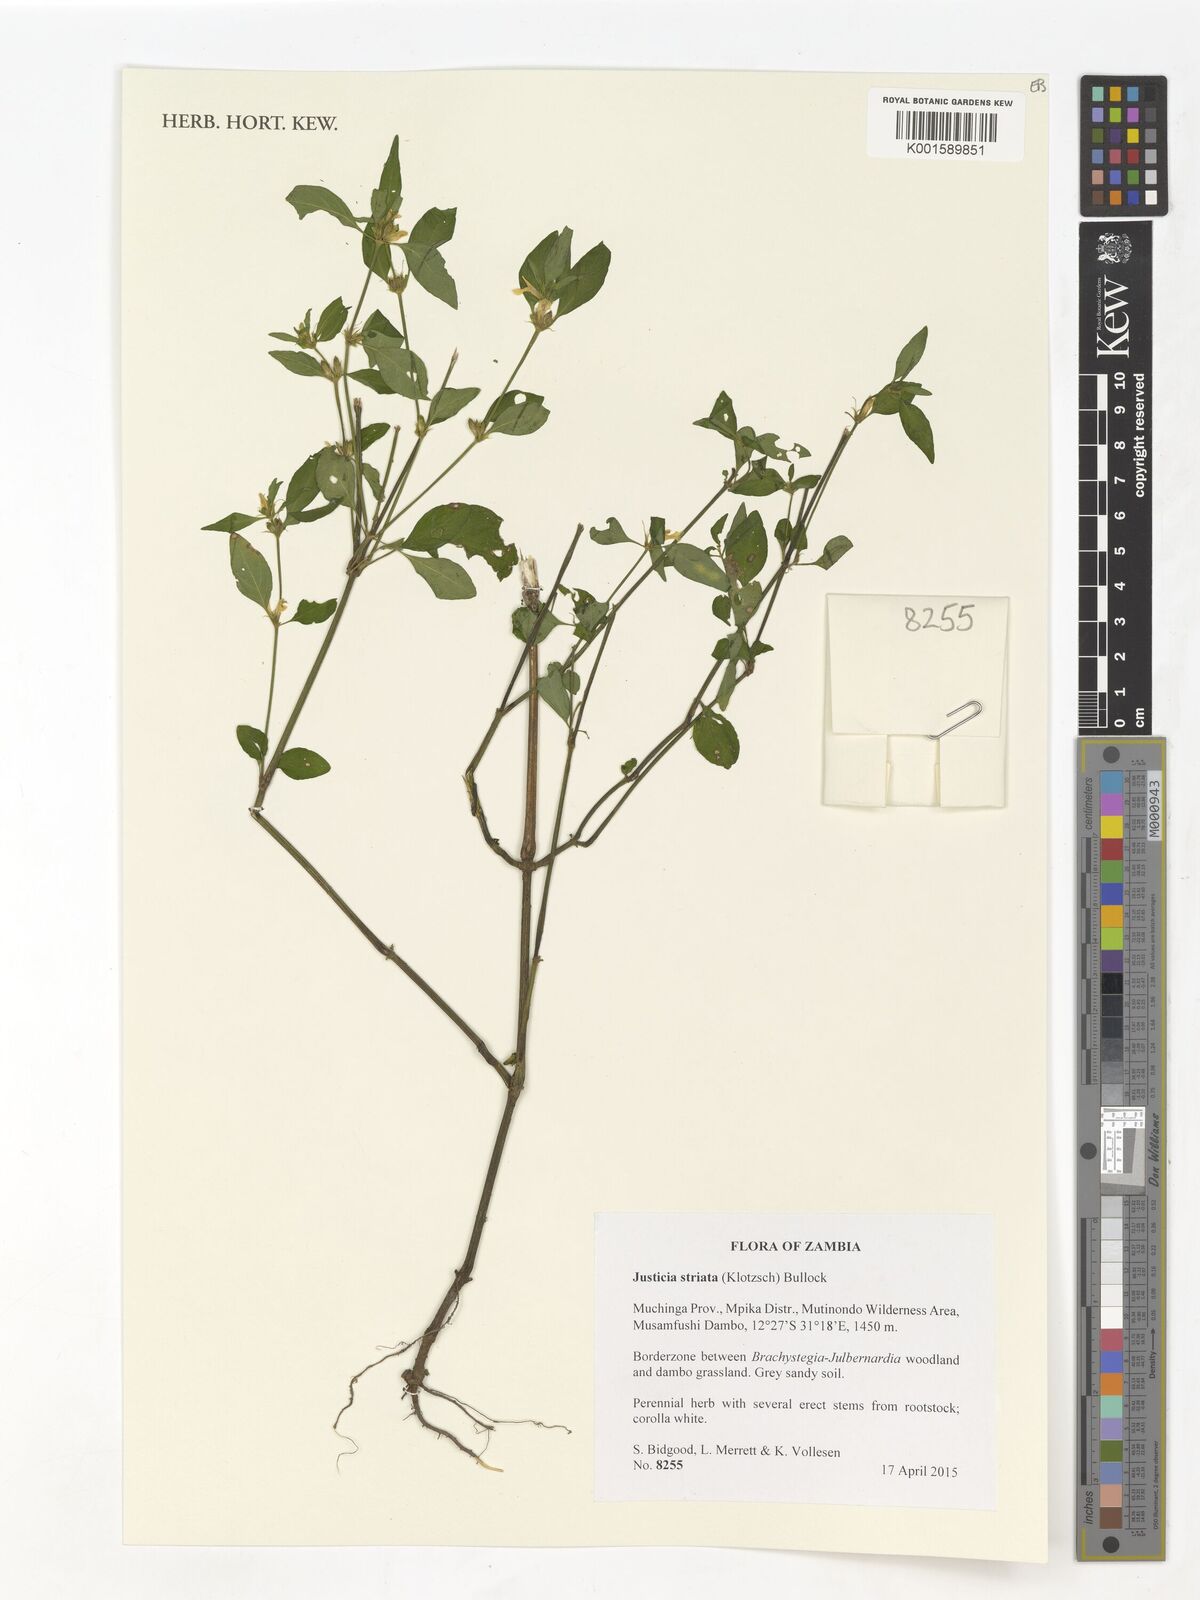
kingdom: Plantae
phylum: Tracheophyta
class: Magnoliopsida
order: Lamiales
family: Acanthaceae
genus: Justicia
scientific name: Justicia striata
